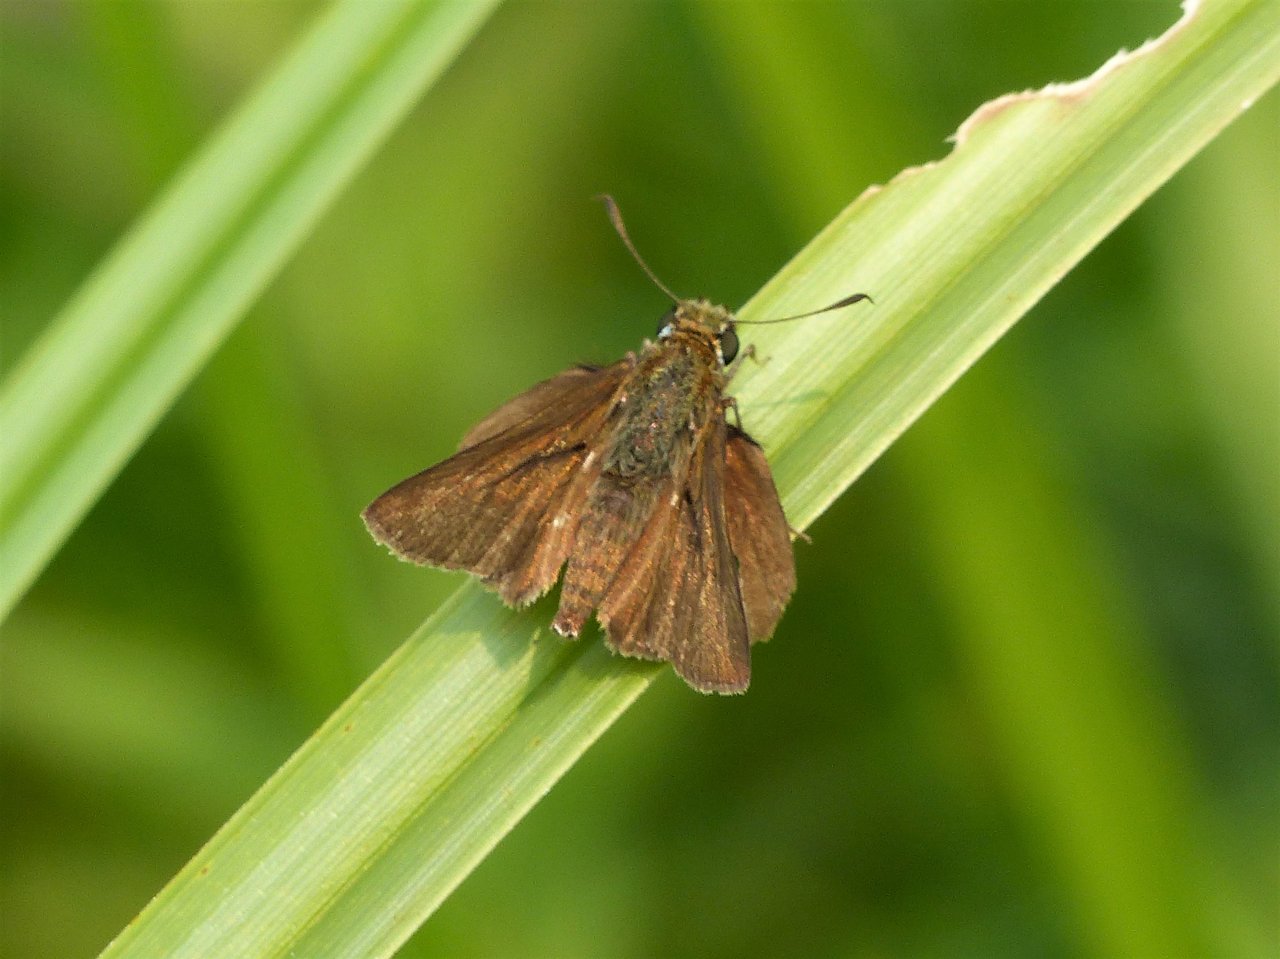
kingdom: Animalia
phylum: Arthropoda
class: Insecta
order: Lepidoptera
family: Hesperiidae
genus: Euphyes
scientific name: Euphyes vestris
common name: Dun Skipper
